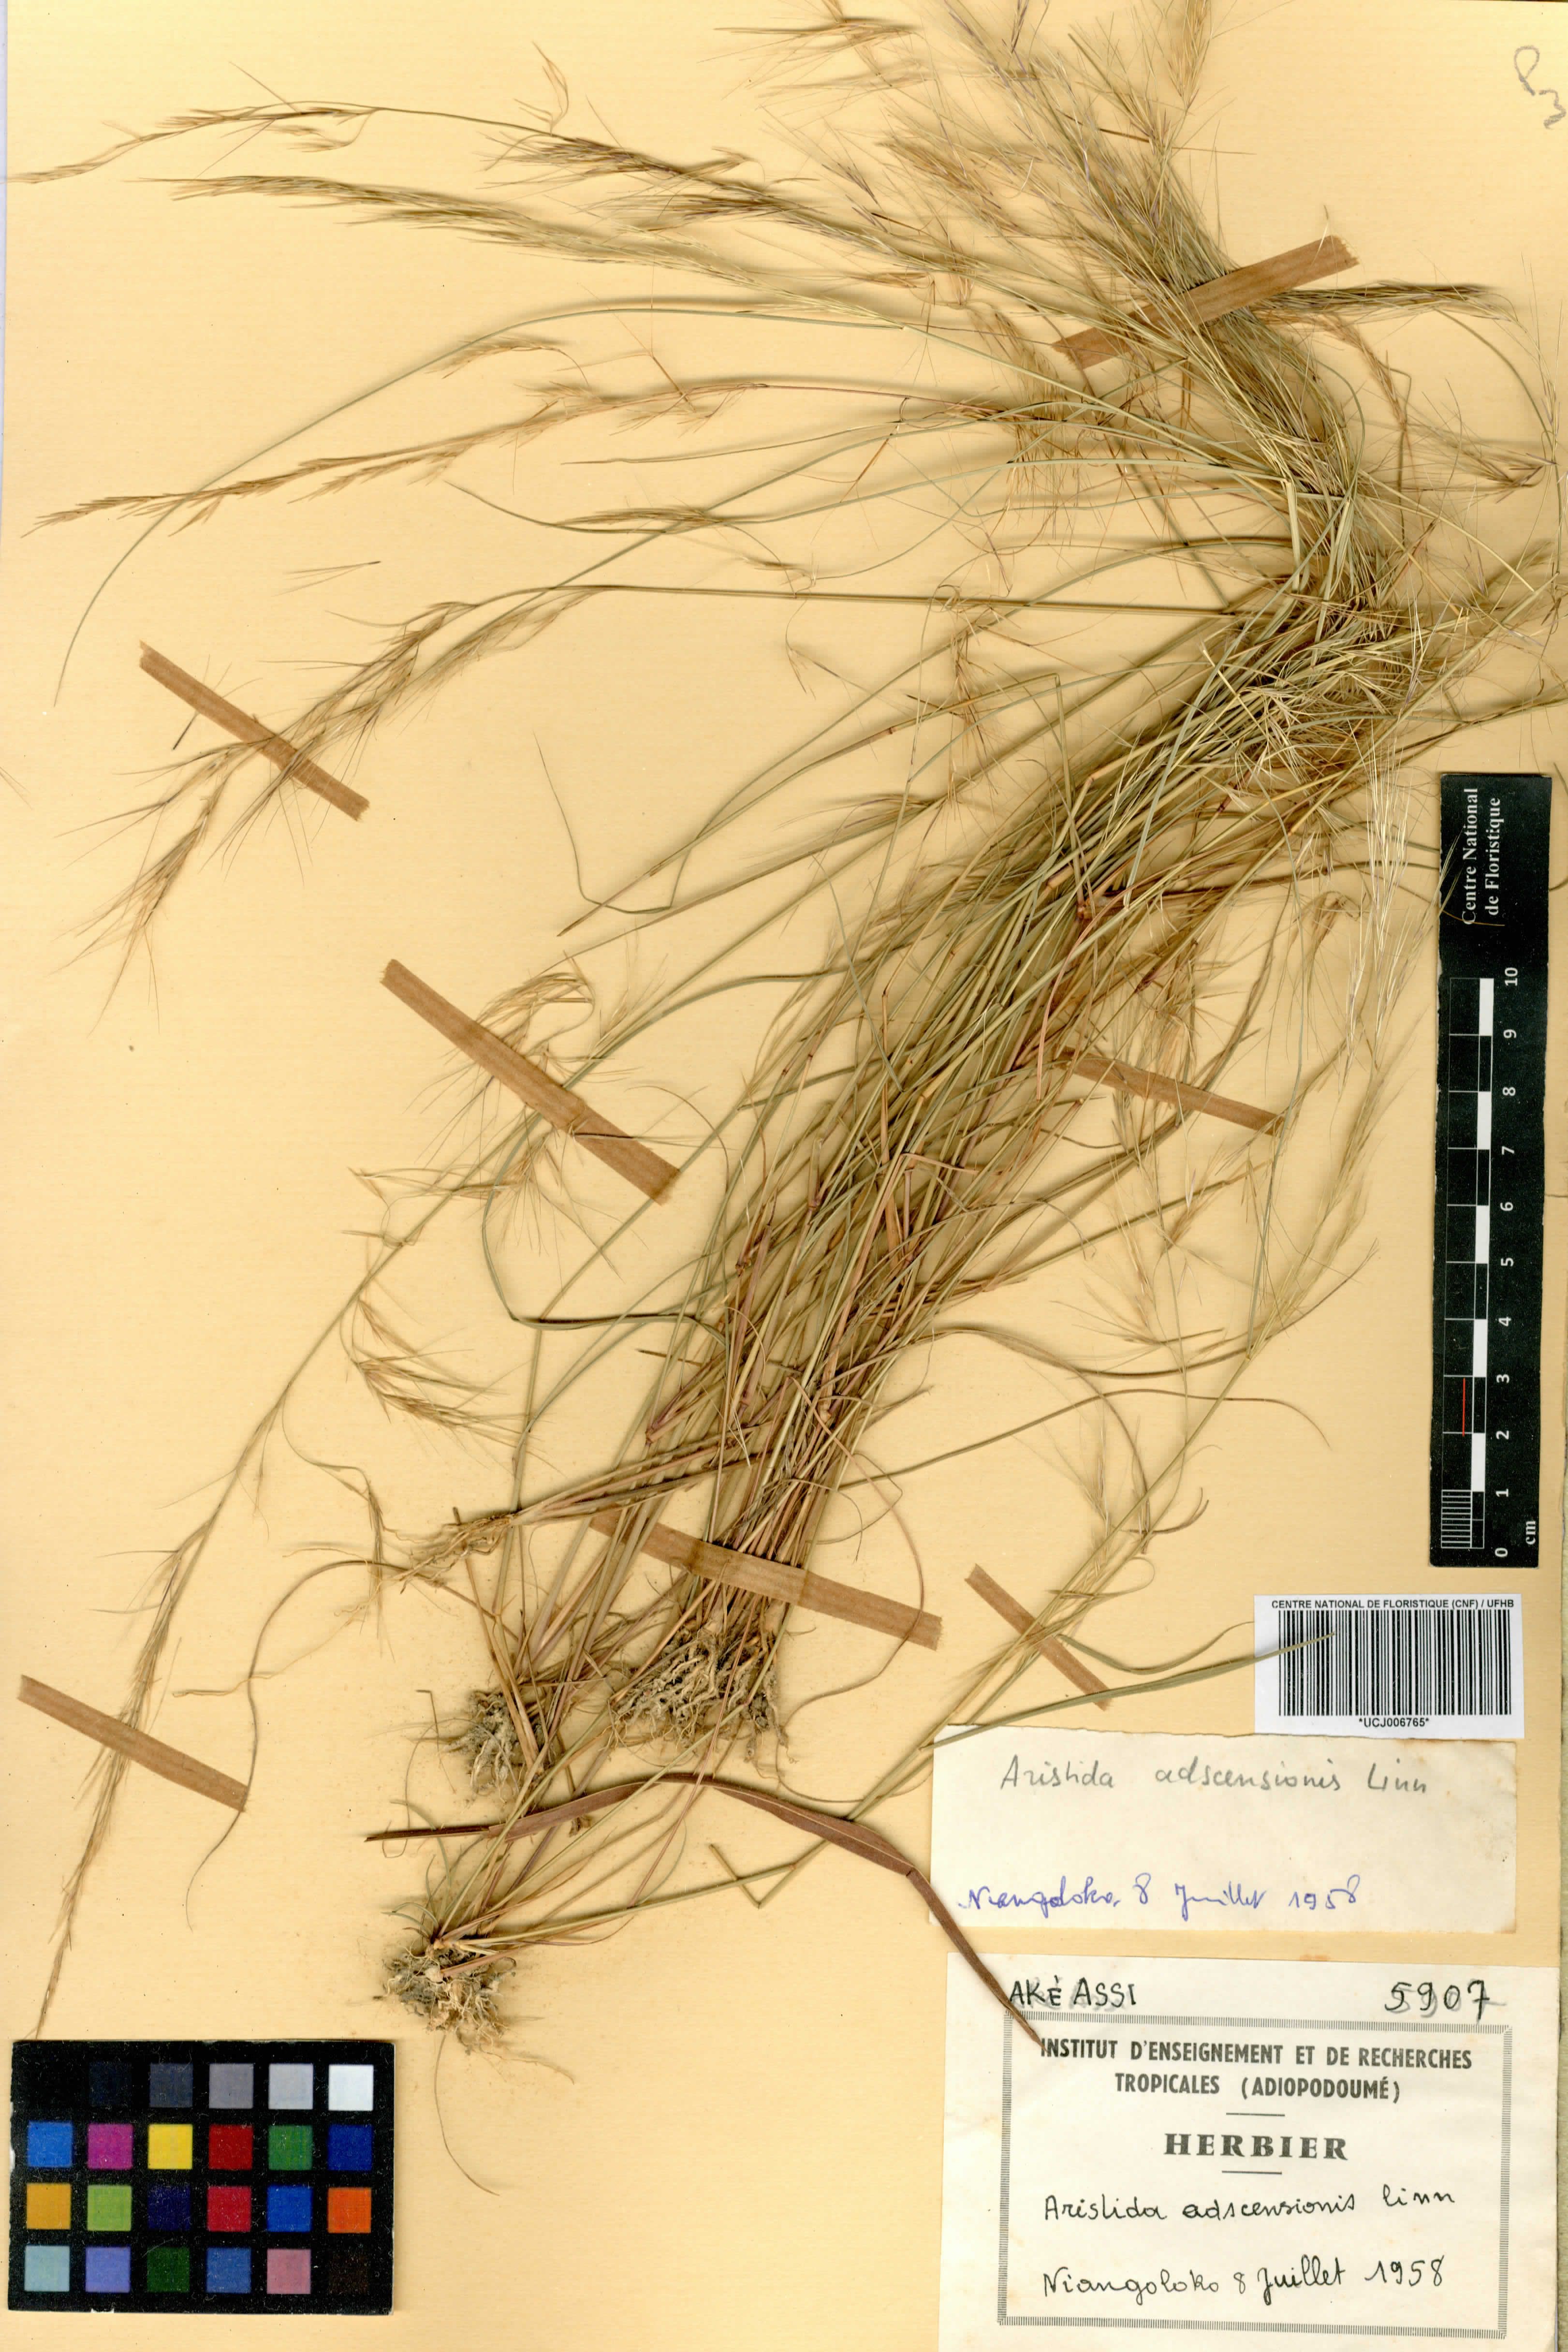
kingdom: Plantae
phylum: Tracheophyta
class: Liliopsida
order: Poales
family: Poaceae
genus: Aristida
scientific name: Aristida adscensionis
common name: Sixweeks threeawn
